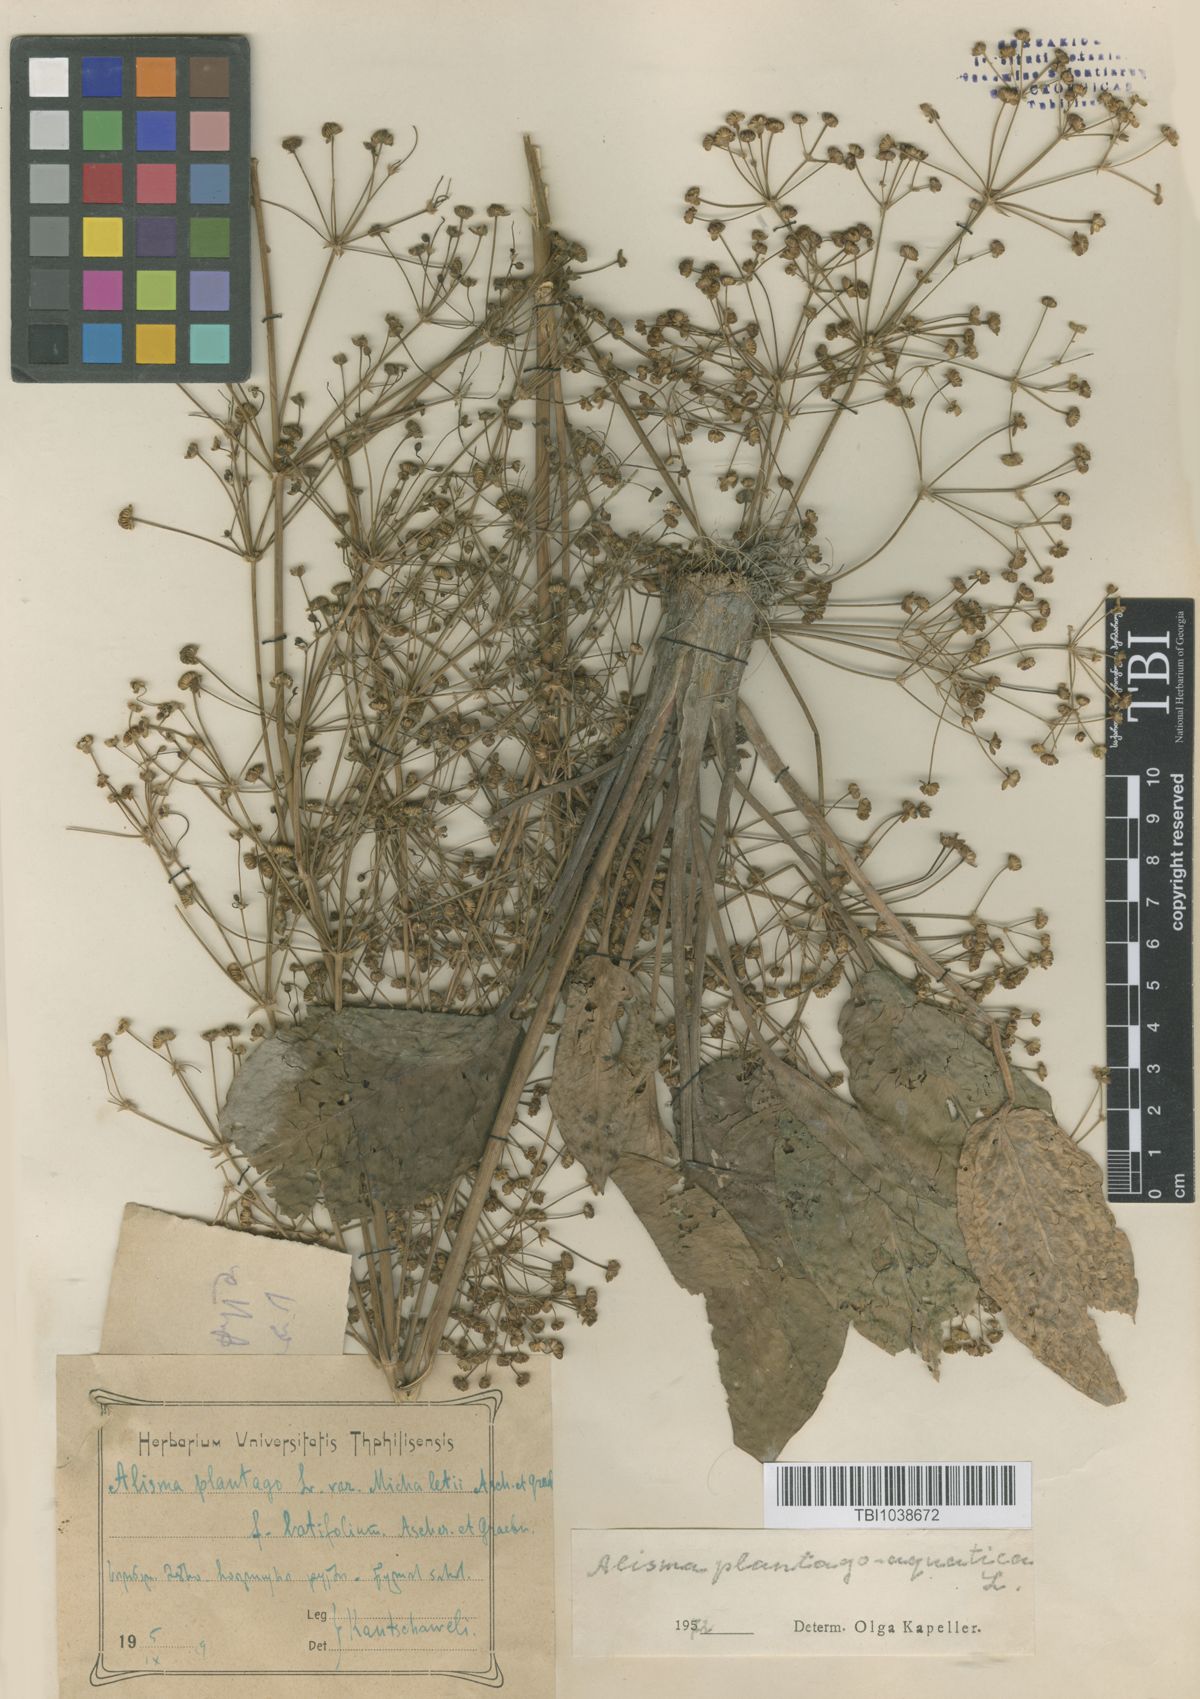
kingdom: Plantae
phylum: Tracheophyta
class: Liliopsida
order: Alismatales
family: Alismataceae
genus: Alisma
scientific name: Alisma plantago-aquatica
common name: Water-plantain
